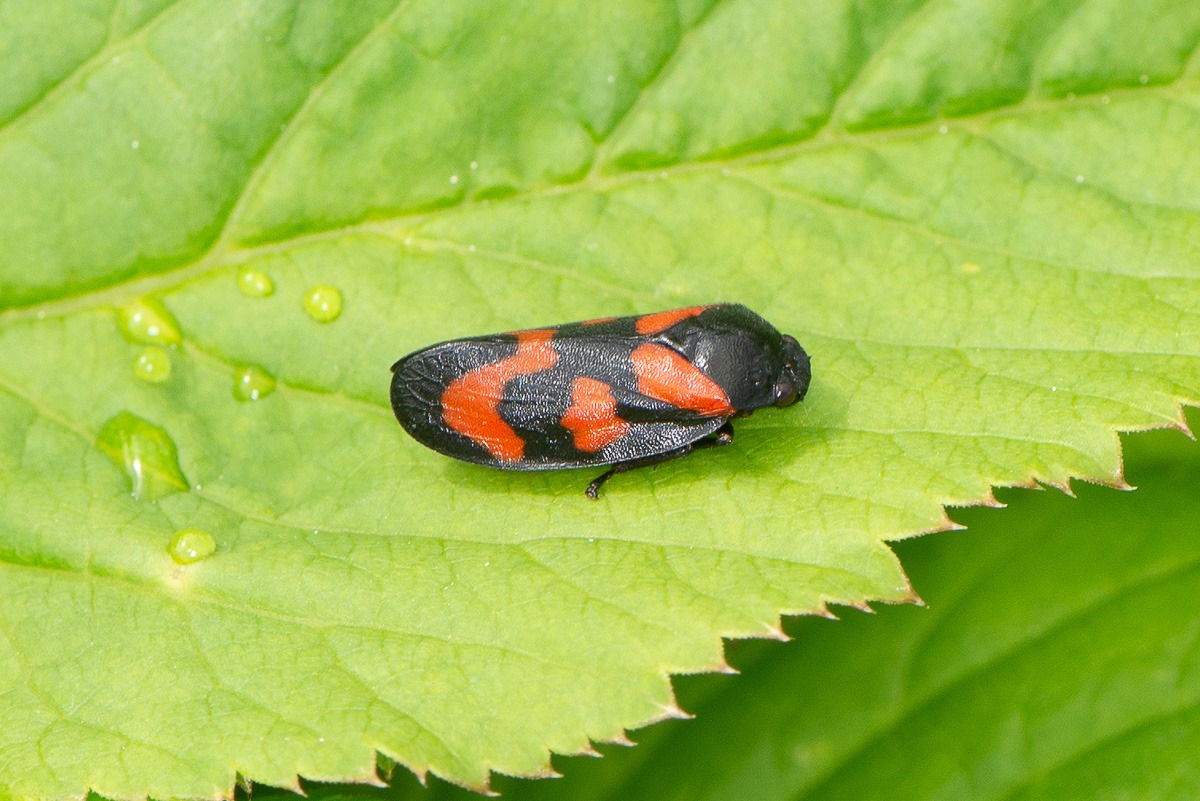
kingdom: Animalia
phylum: Arthropoda
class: Insecta
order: Hemiptera
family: Cercopidae
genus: Cercopis
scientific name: Cercopis vulnerata
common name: Blodcikade
